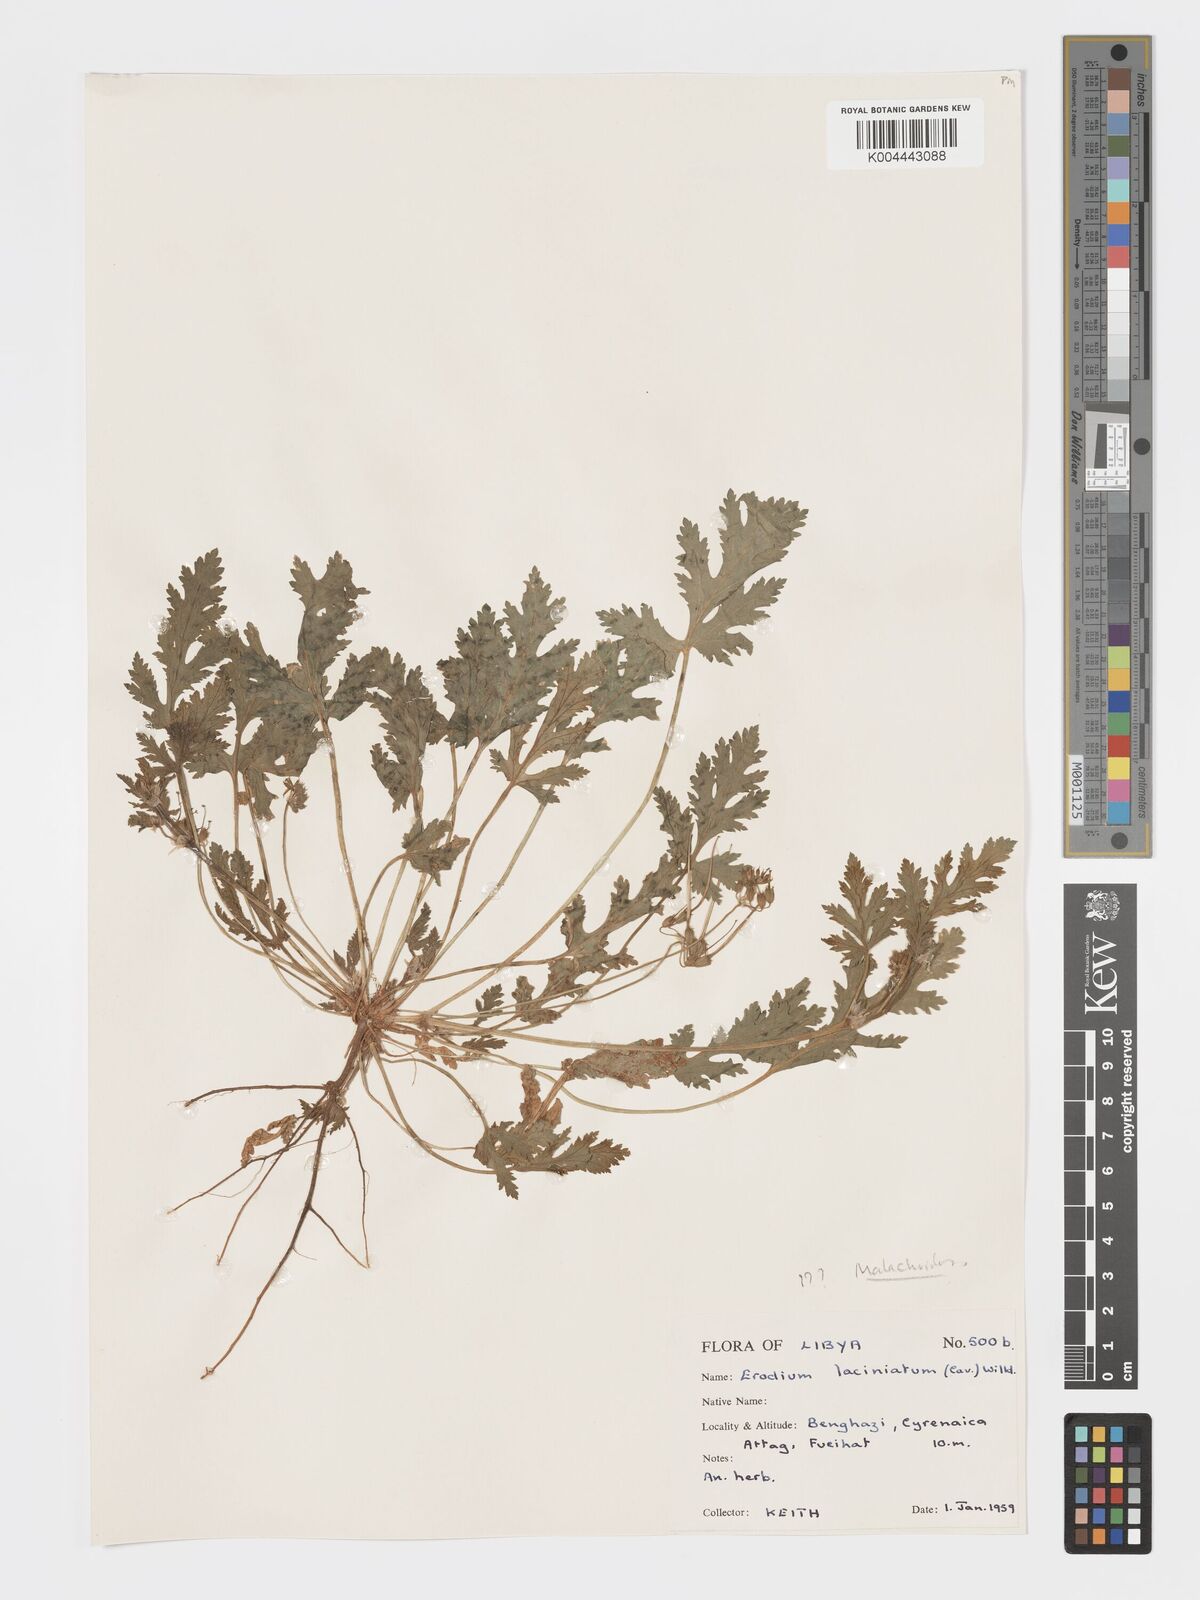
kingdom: Plantae
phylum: Tracheophyta
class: Magnoliopsida
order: Geraniales
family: Geraniaceae
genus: Erodium
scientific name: Erodium laciniatum
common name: Cutleaf stork's bill
